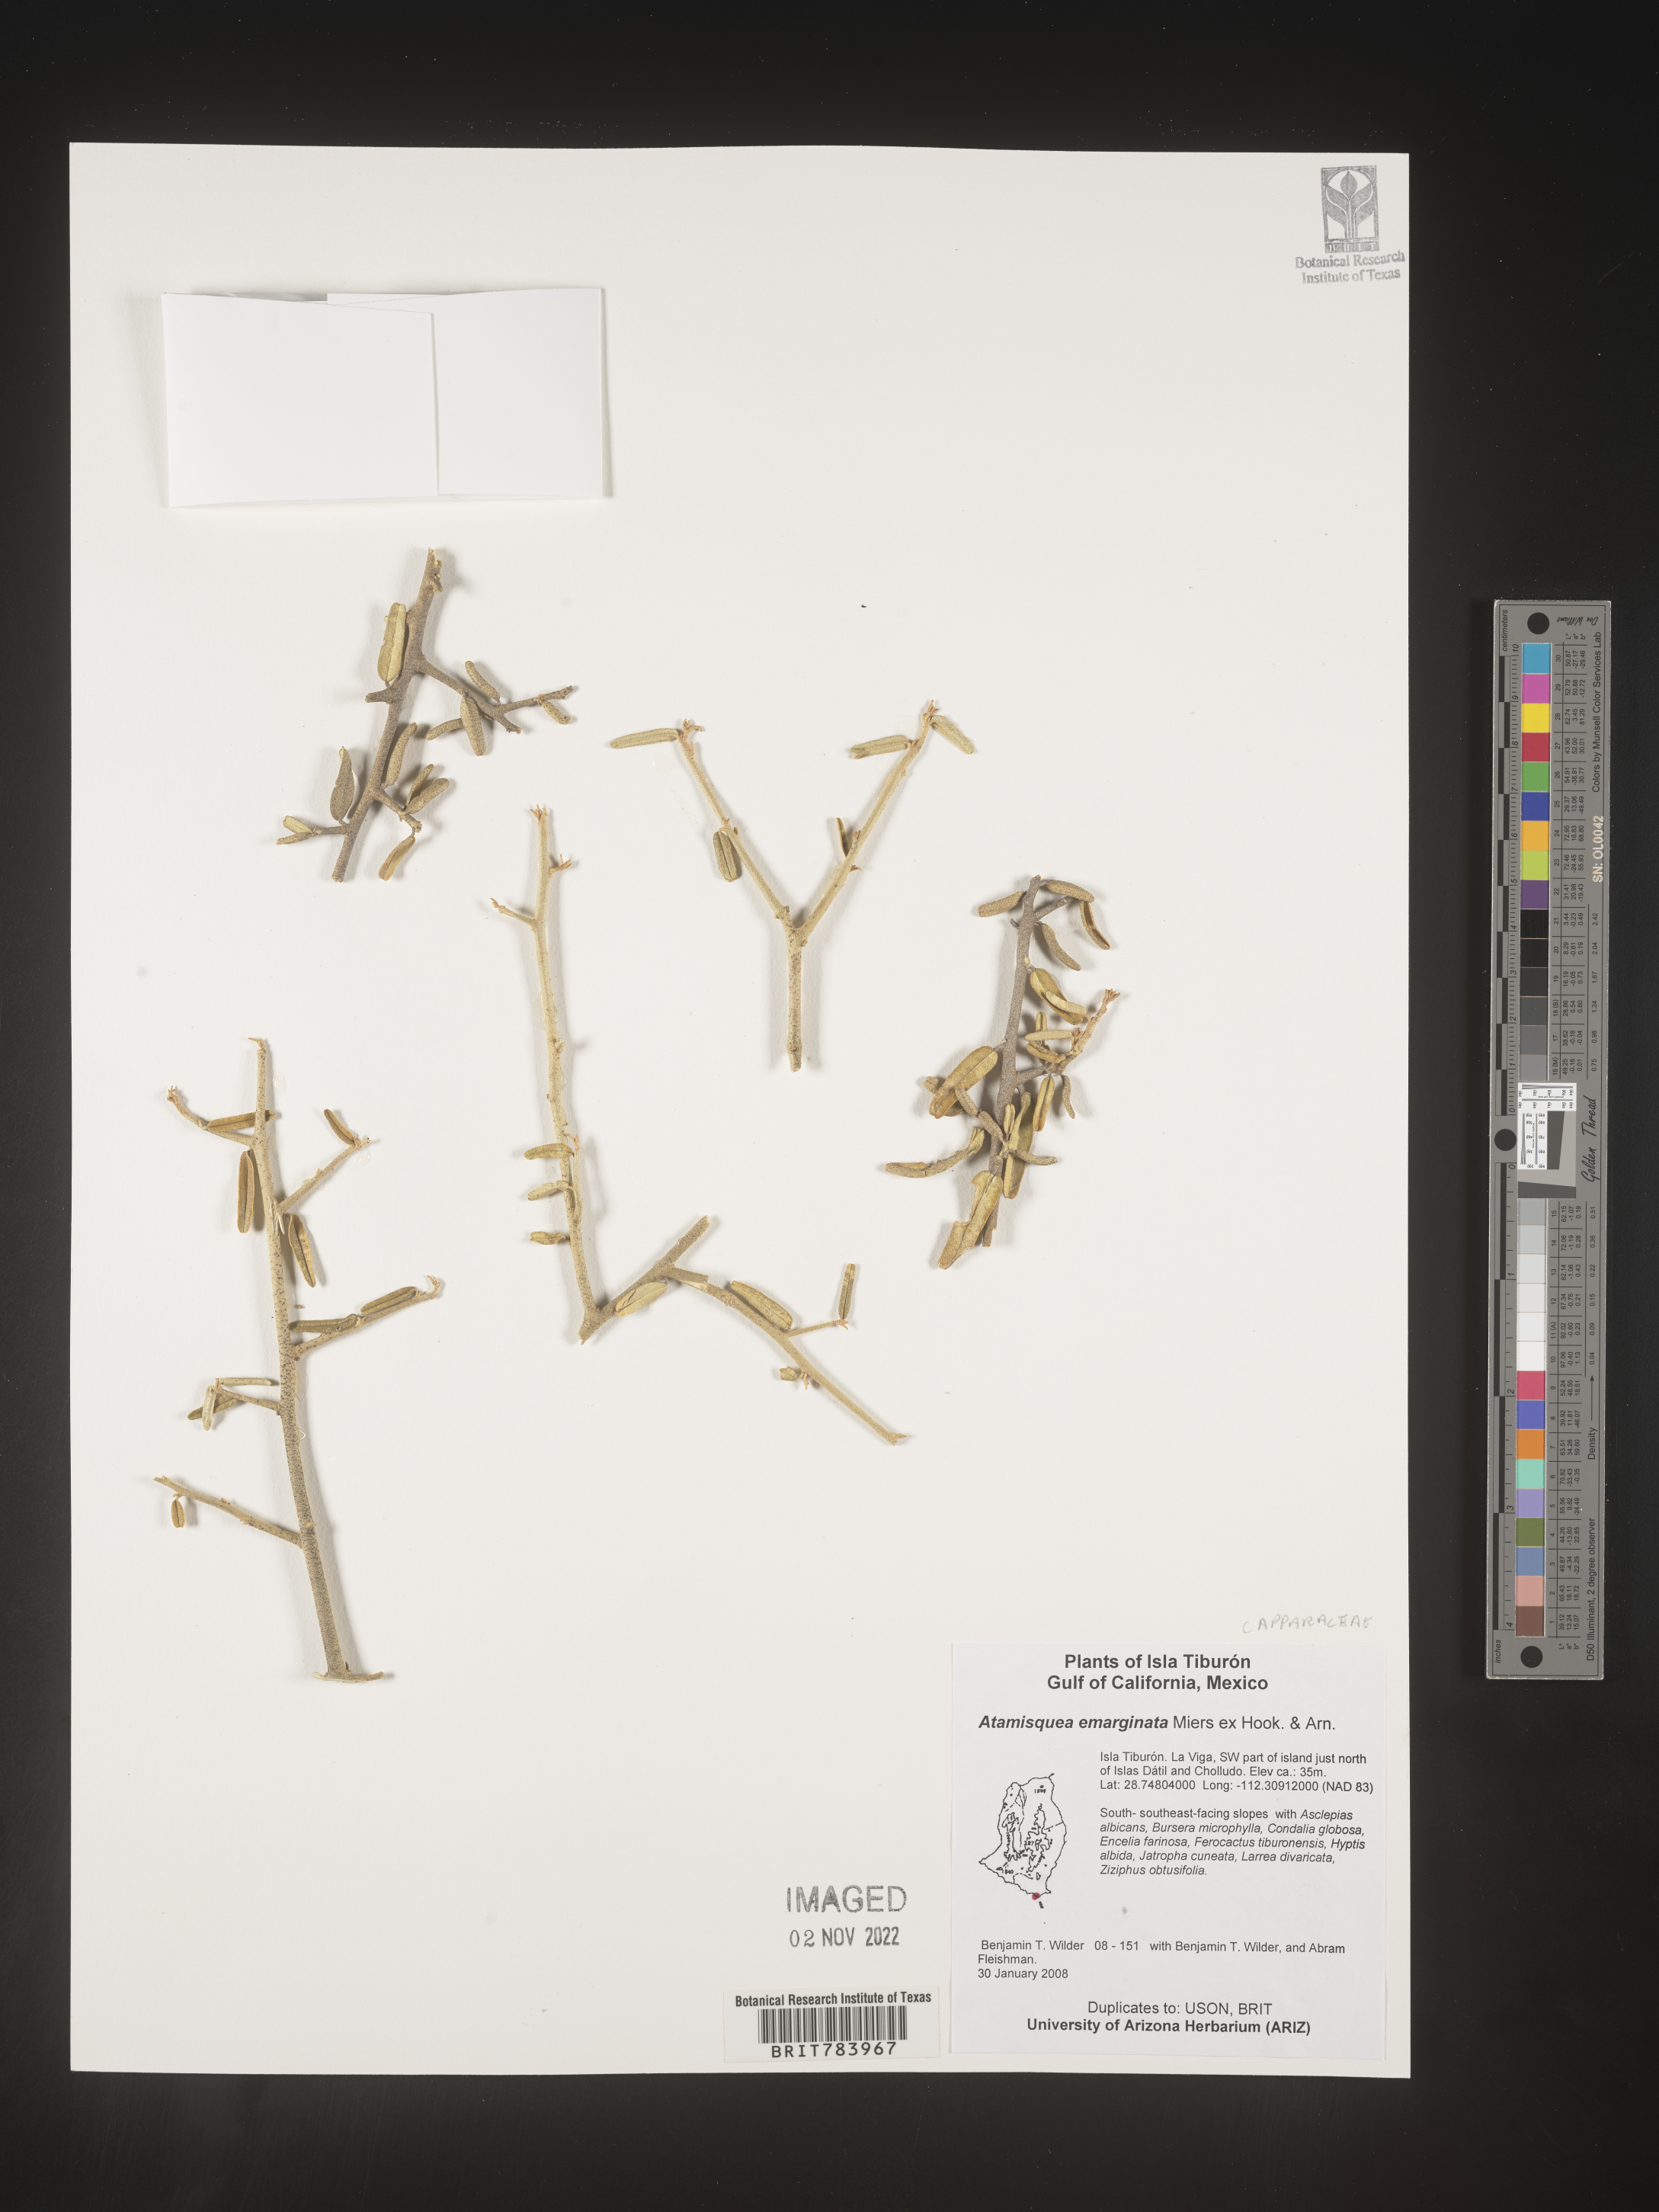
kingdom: Plantae
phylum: Tracheophyta
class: Magnoliopsida
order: Brassicales
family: Capparaceae
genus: Atamisquea
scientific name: Atamisquea
